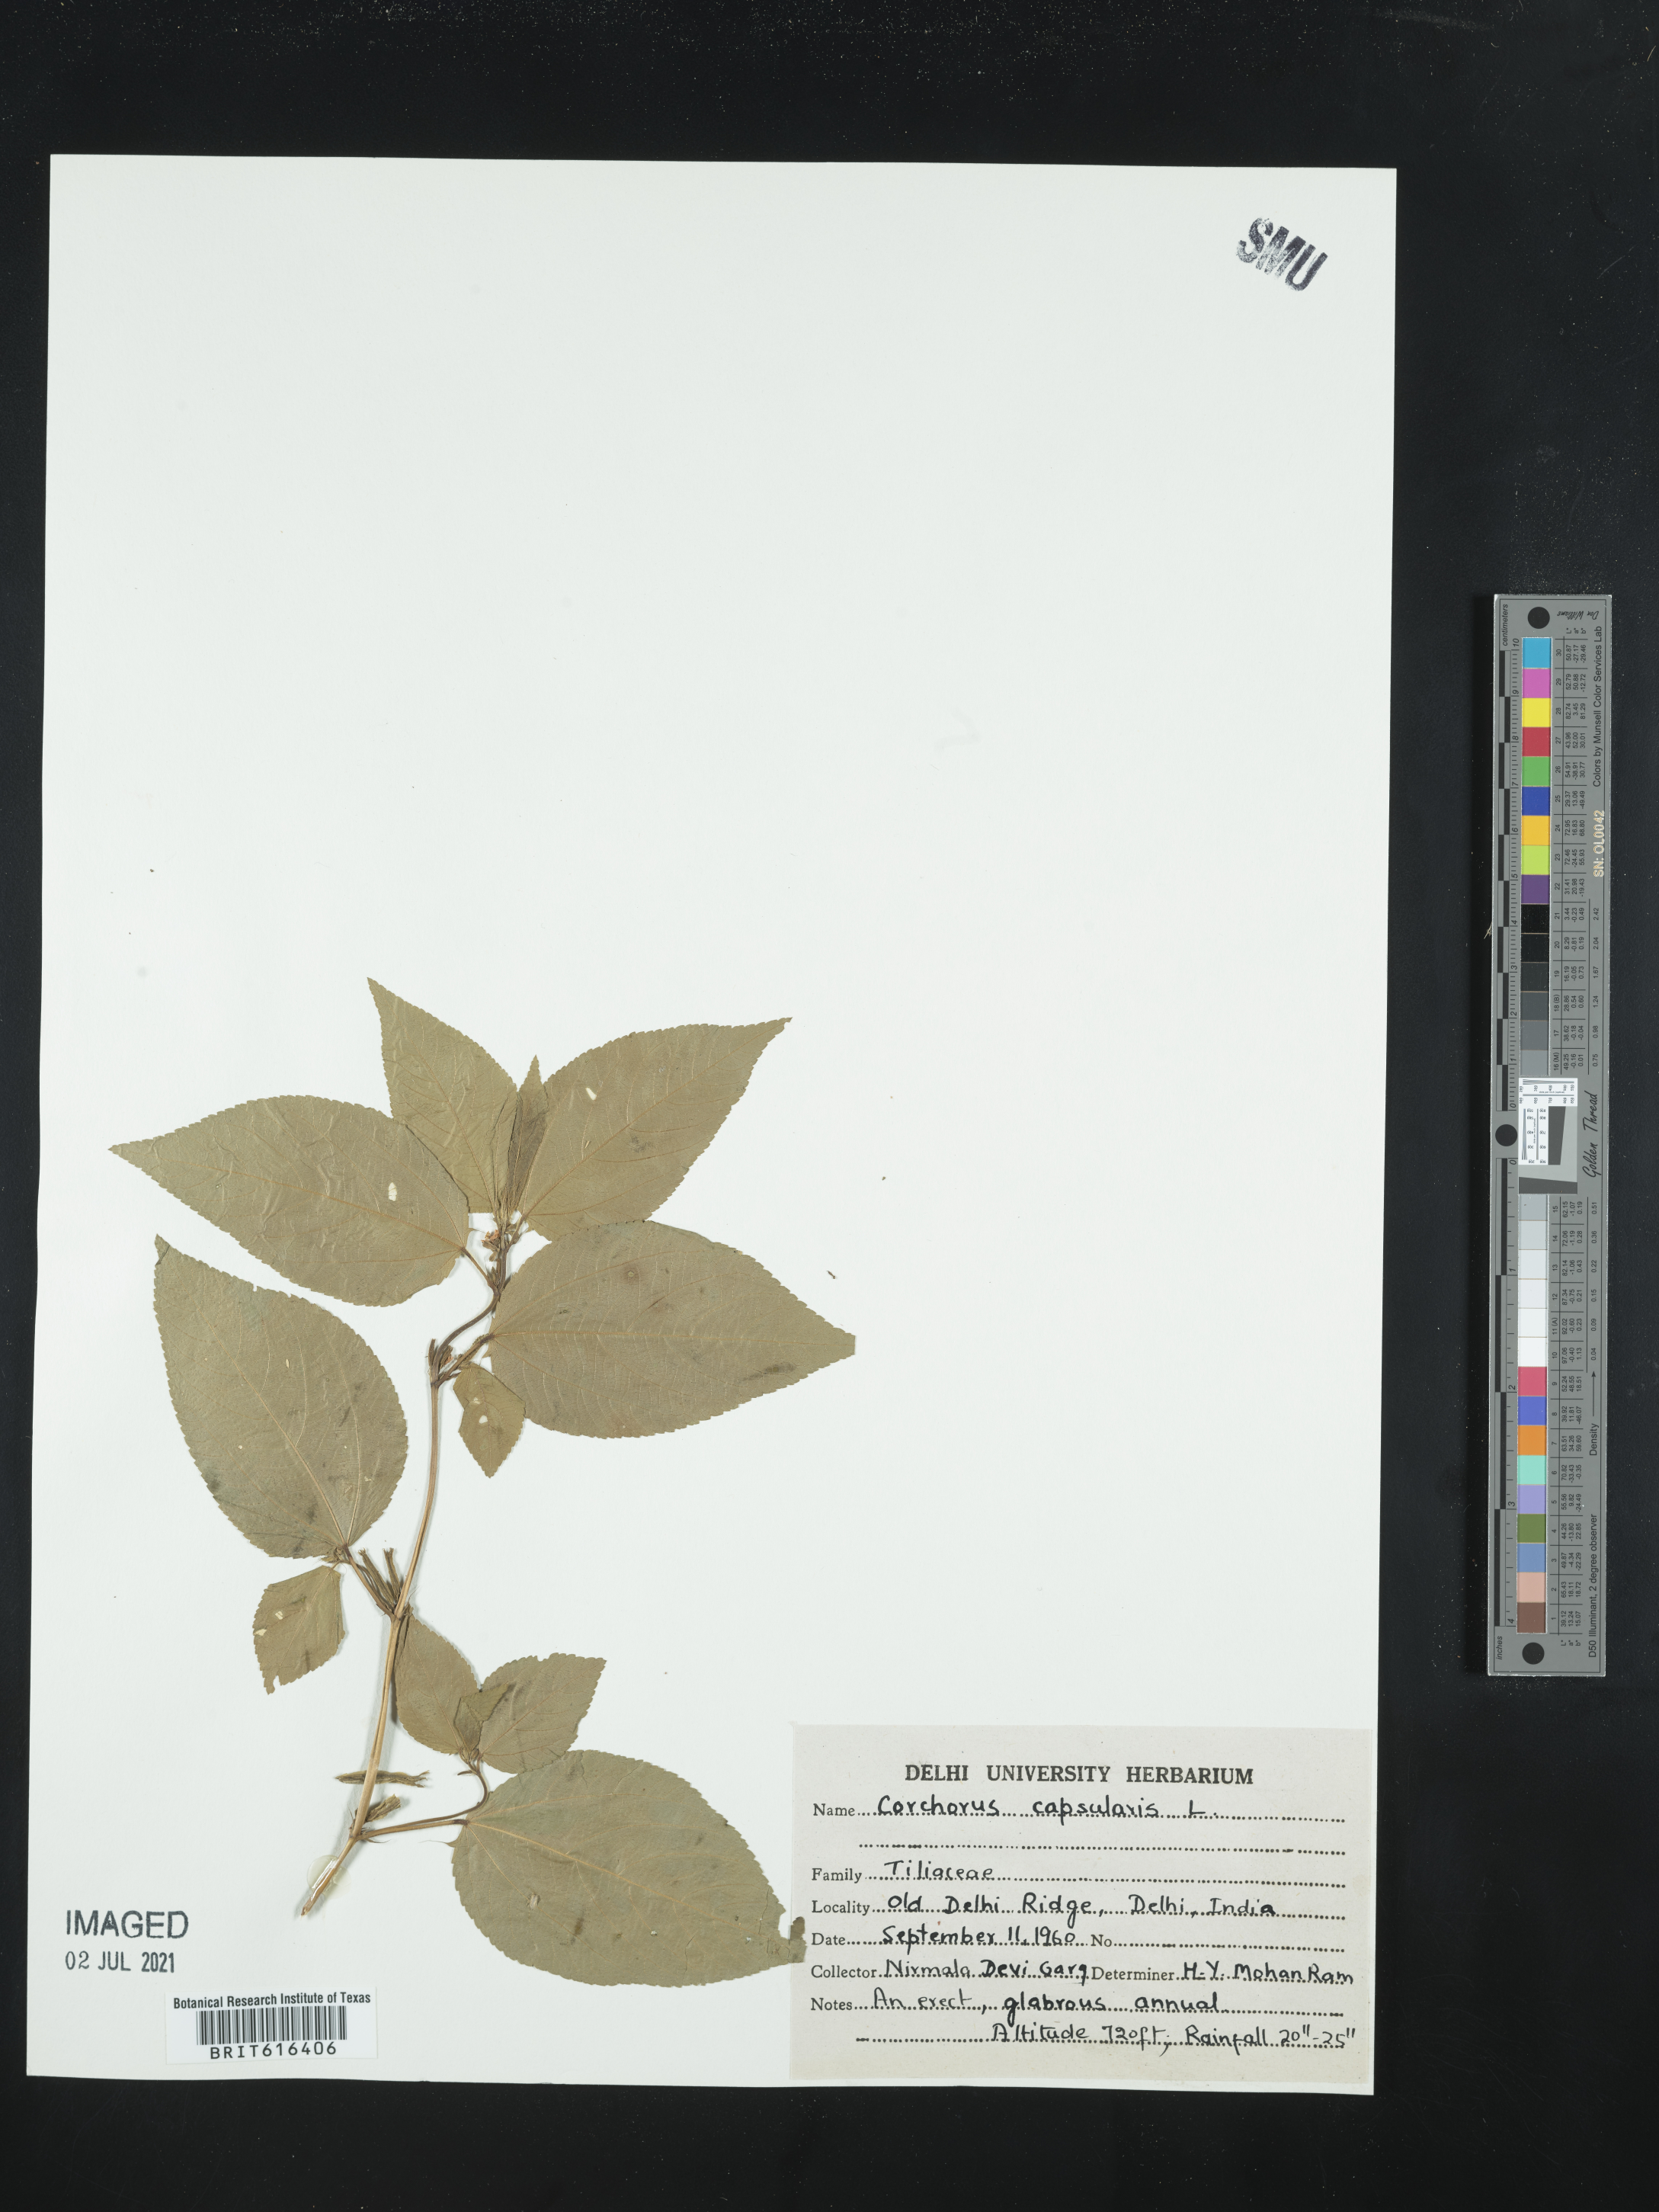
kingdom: Plantae
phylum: Tracheophyta
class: Magnoliopsida
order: Malvales
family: Malvaceae
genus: Corchorus
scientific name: Corchorus capsularis
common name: Jute
